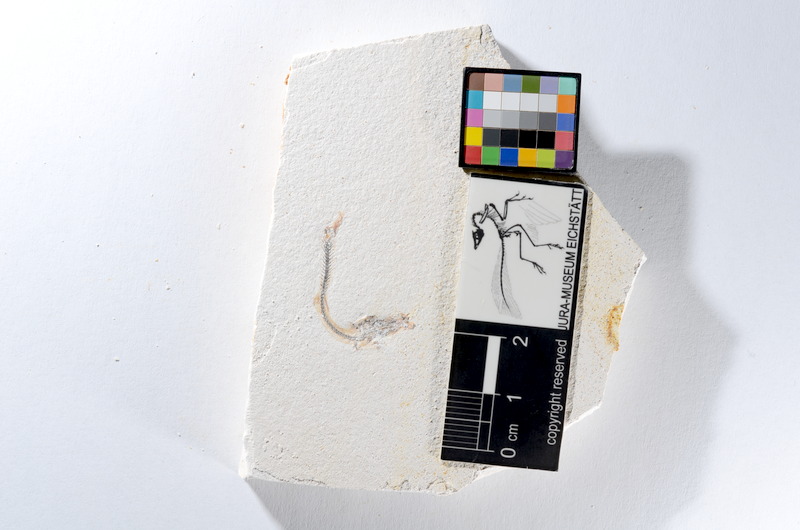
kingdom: Animalia
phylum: Chordata
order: Salmoniformes
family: Orthogonikleithridae
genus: Orthogonikleithrus
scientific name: Orthogonikleithrus hoelli
